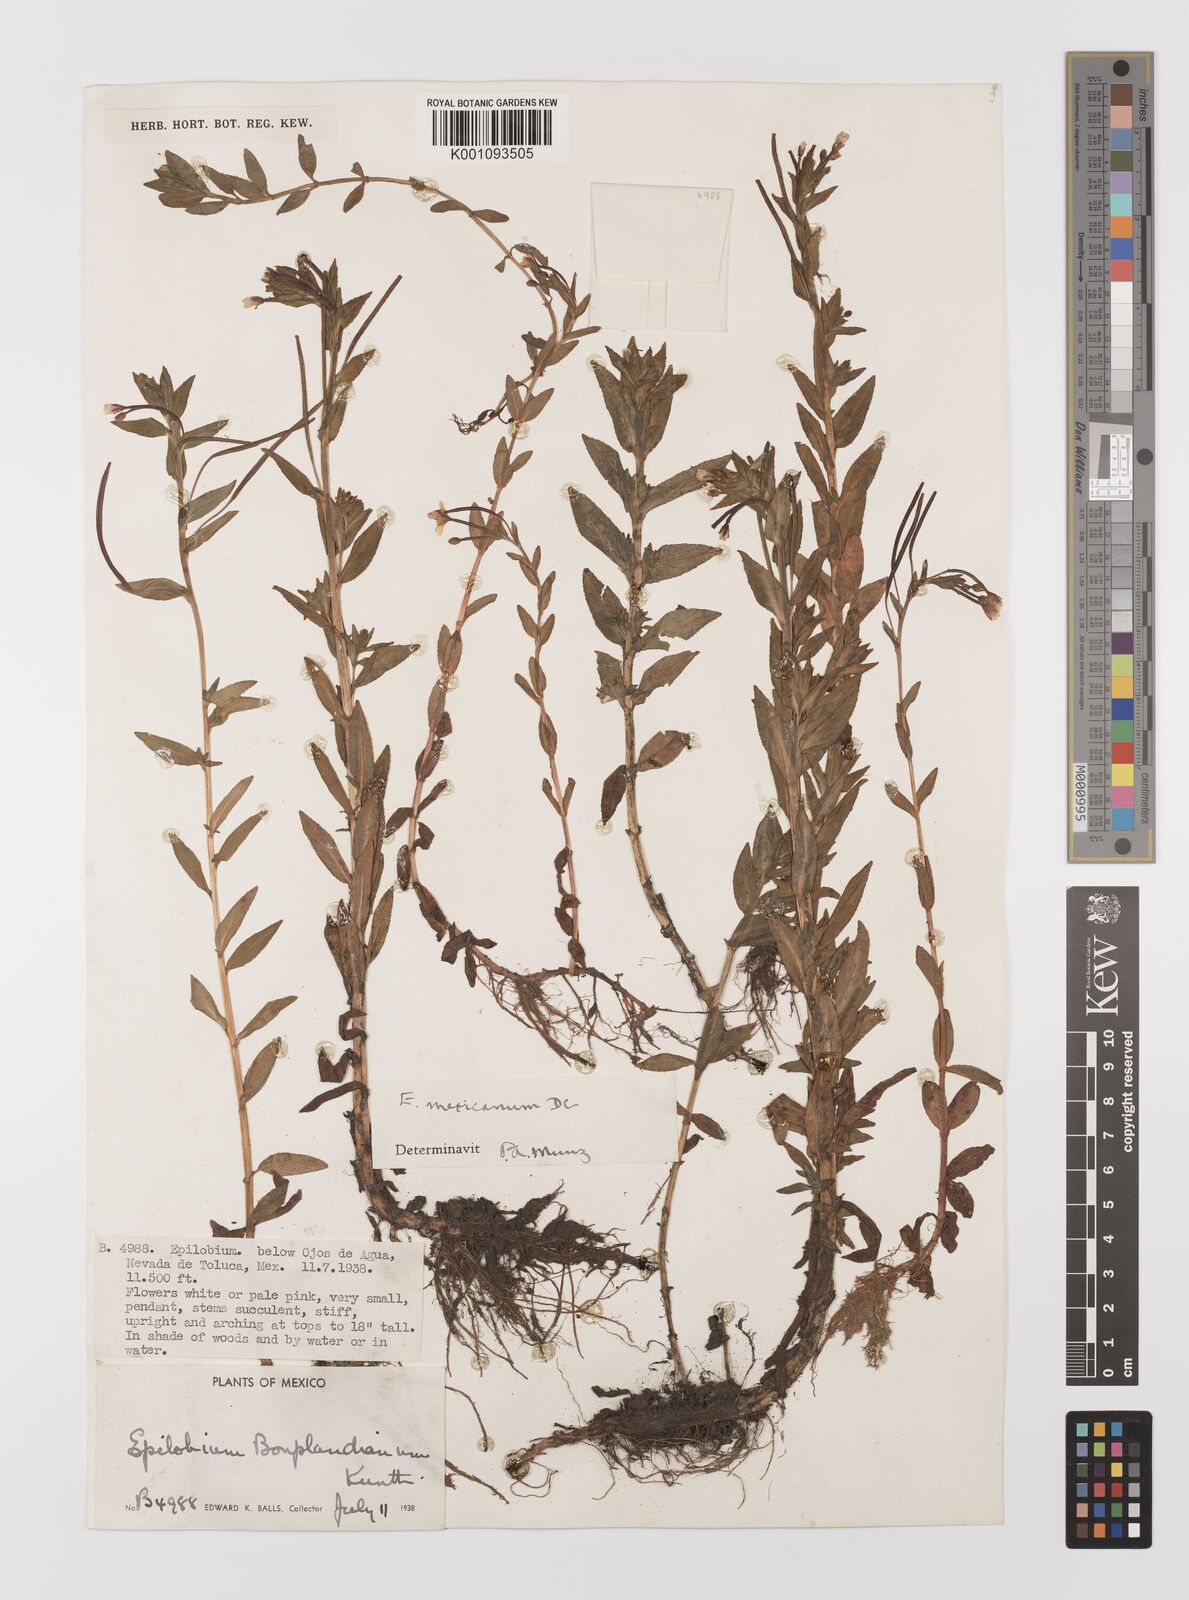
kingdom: Plantae
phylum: Tracheophyta
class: Magnoliopsida
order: Myrtales
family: Onagraceae
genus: Epilobium
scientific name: Epilobium
